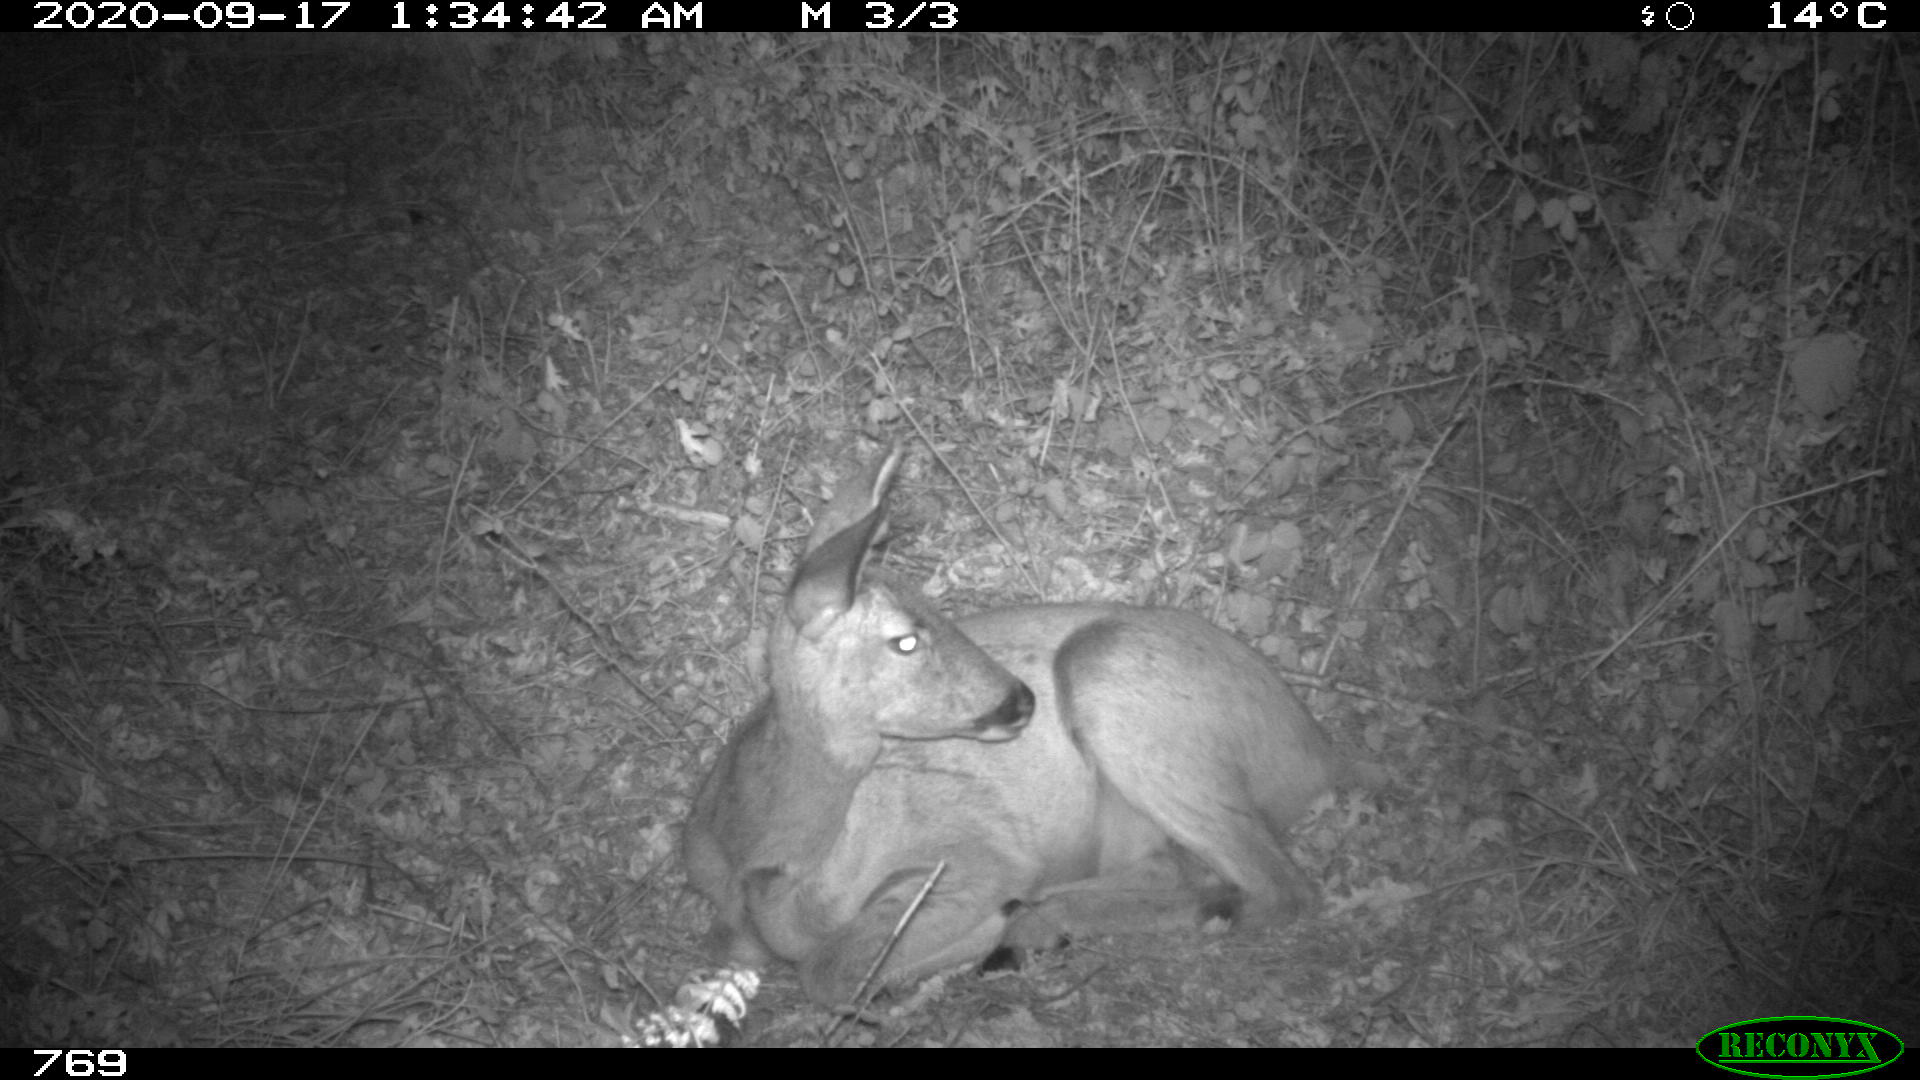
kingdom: Animalia
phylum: Chordata
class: Mammalia
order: Artiodactyla
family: Cervidae
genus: Capreolus
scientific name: Capreolus capreolus
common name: Western roe deer
